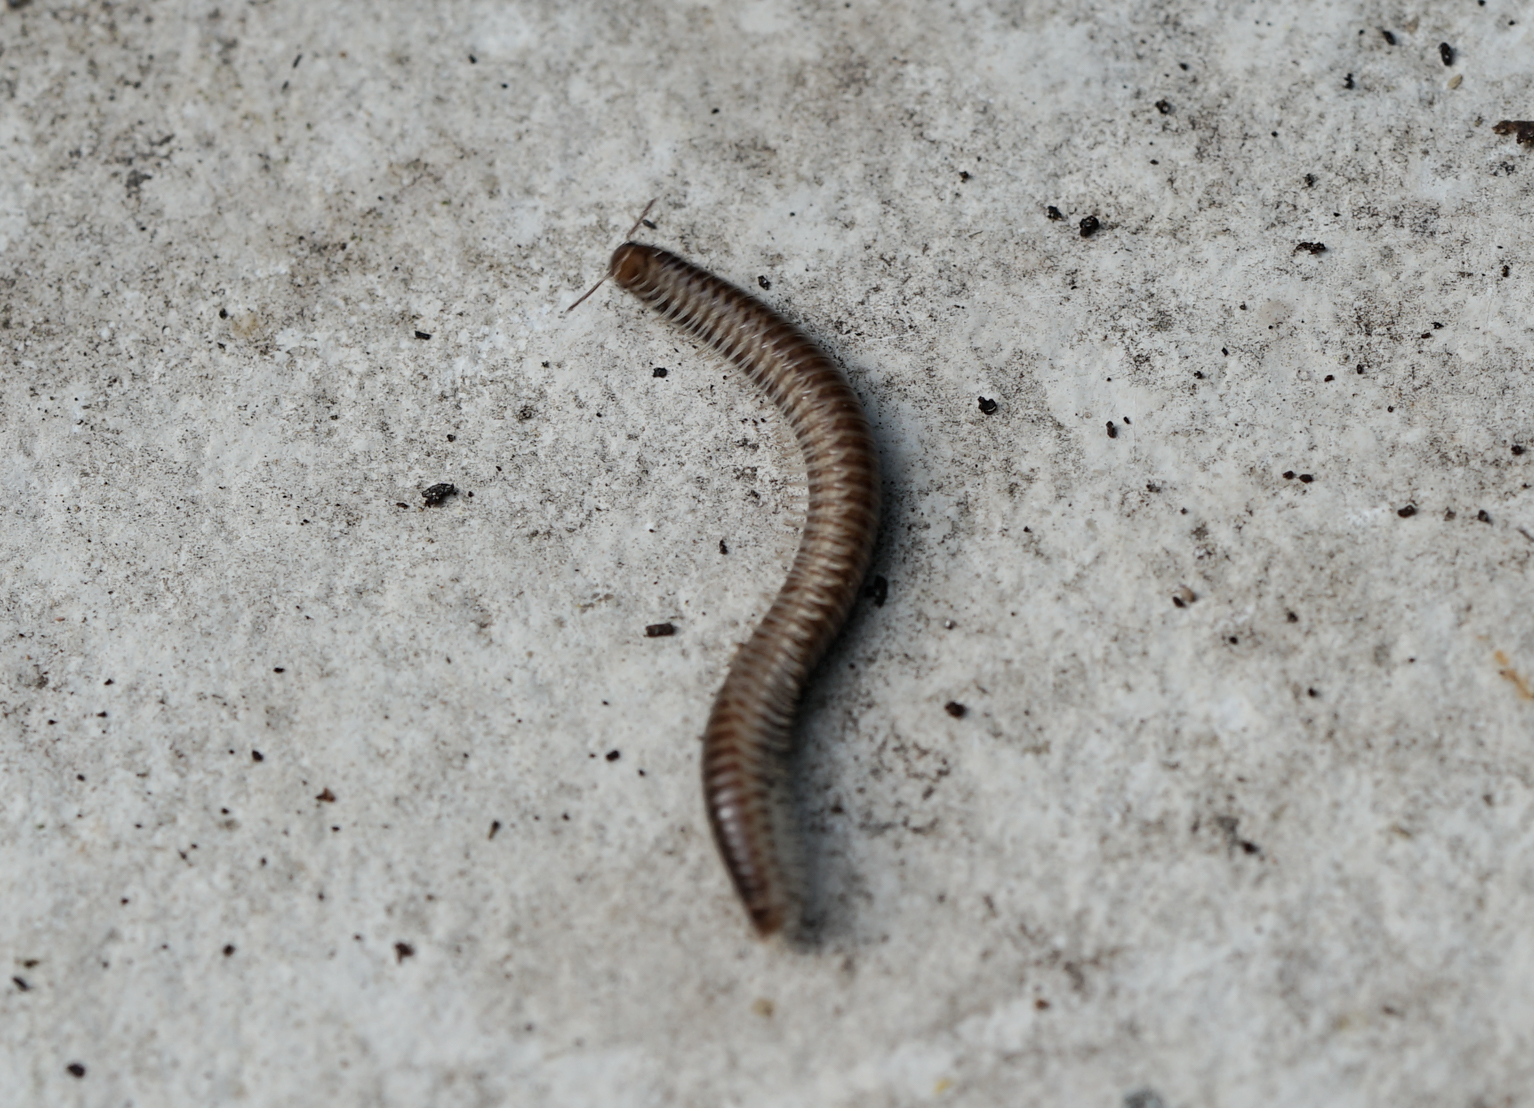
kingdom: Animalia
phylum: Arthropoda
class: Diplopoda
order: Julida
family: Julidae
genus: Ommatoiulus
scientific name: Ommatoiulus sabulosus
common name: Striped millipede
